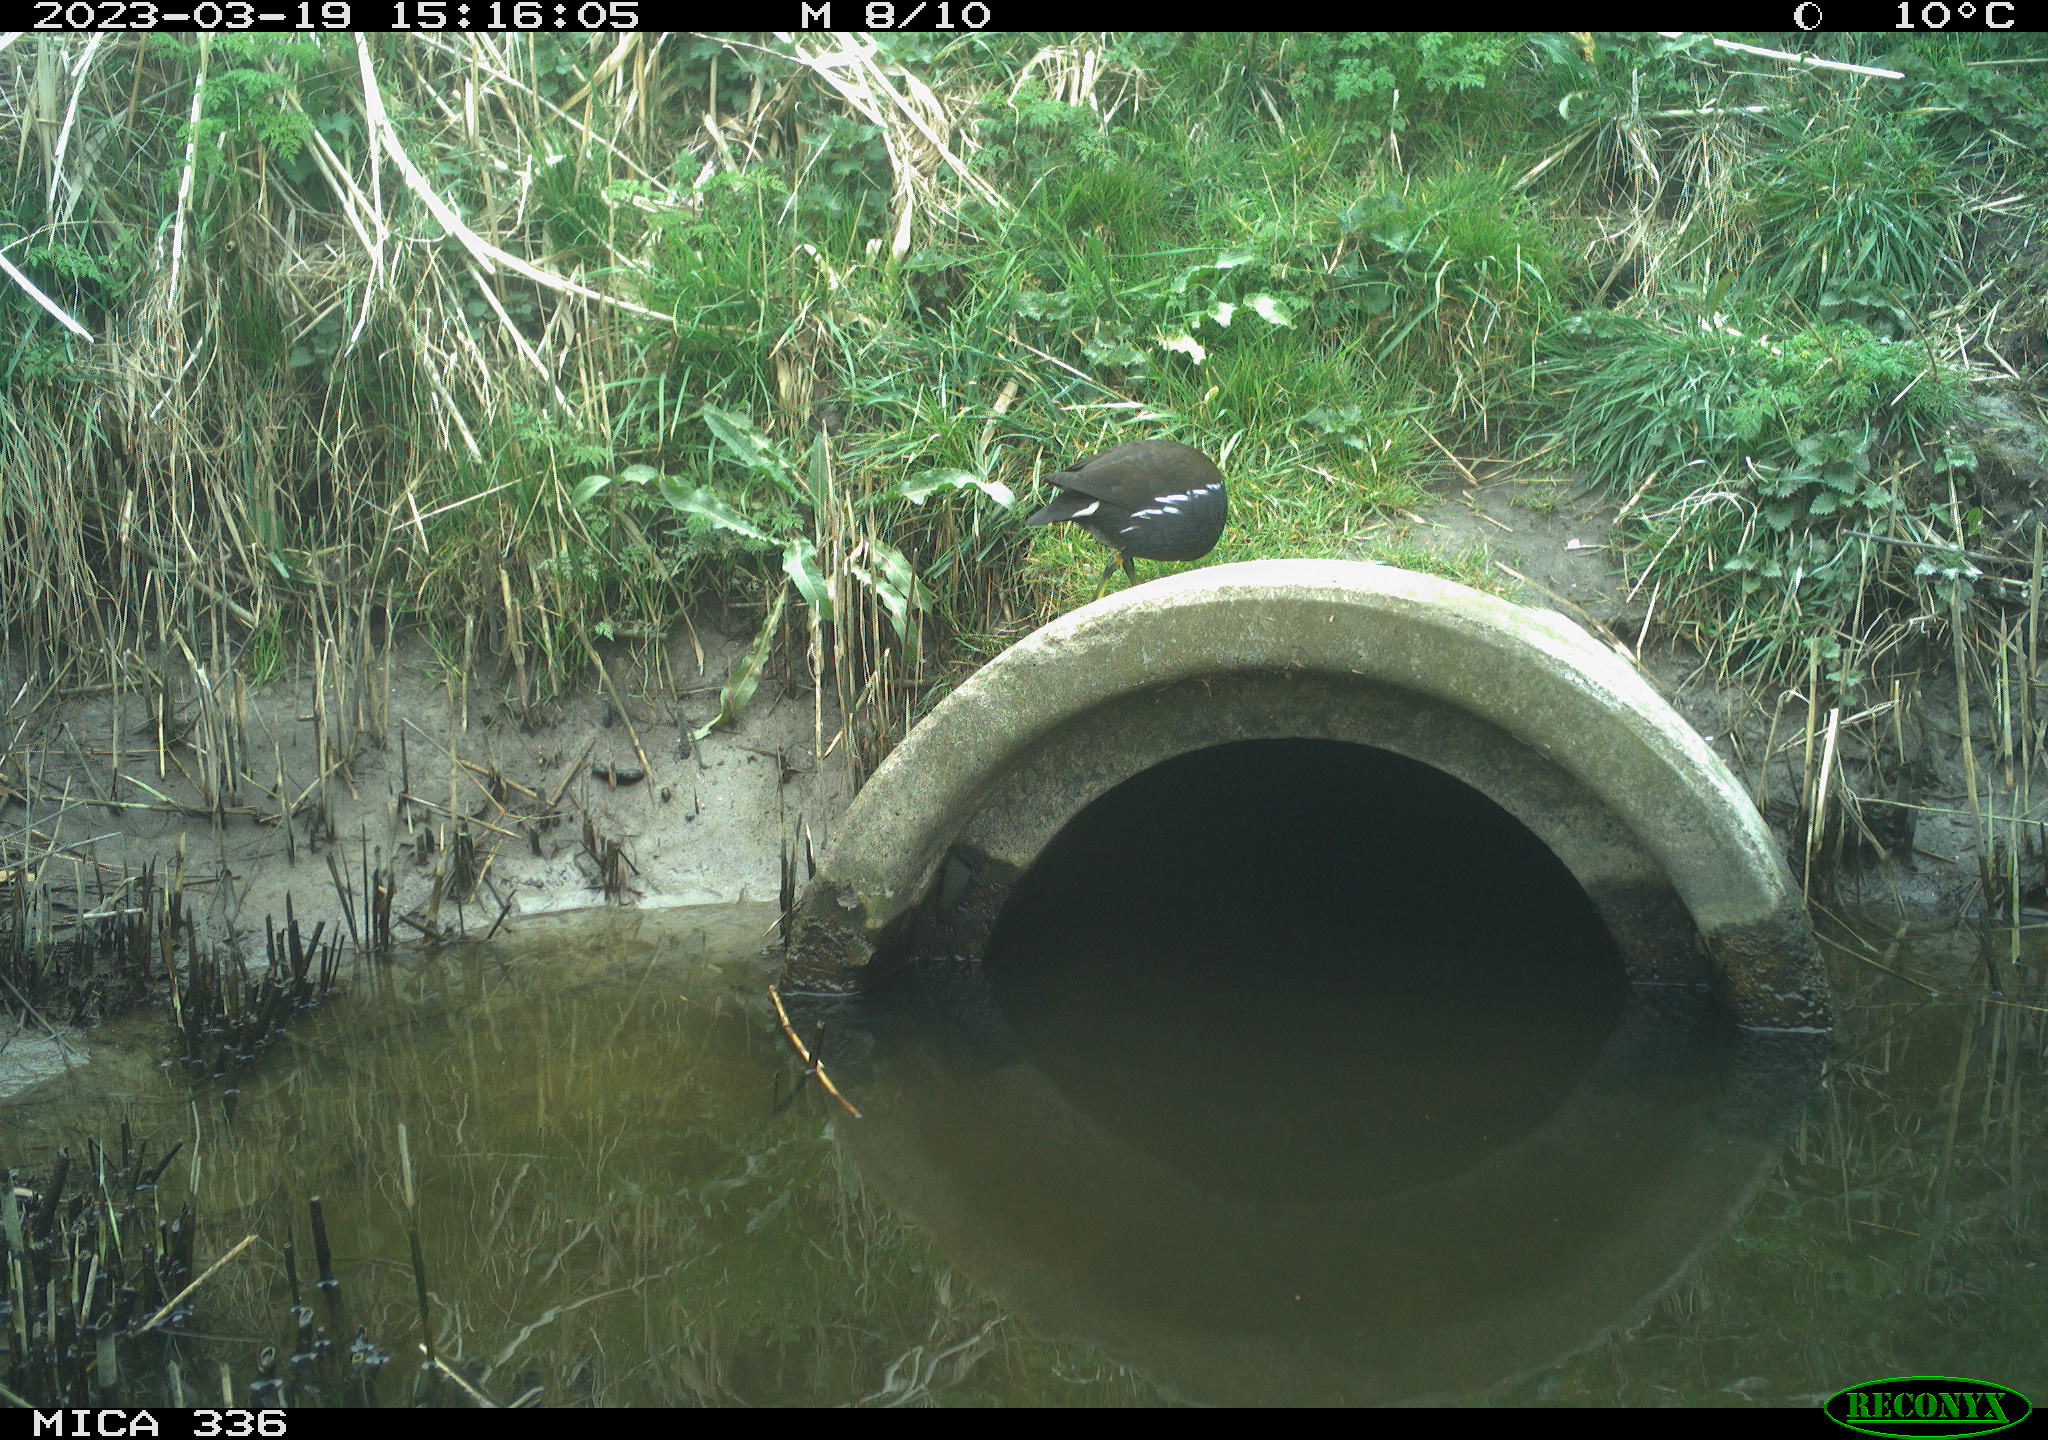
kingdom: Animalia
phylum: Chordata
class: Aves
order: Gruiformes
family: Rallidae
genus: Gallinula
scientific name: Gallinula chloropus
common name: Common moorhen
